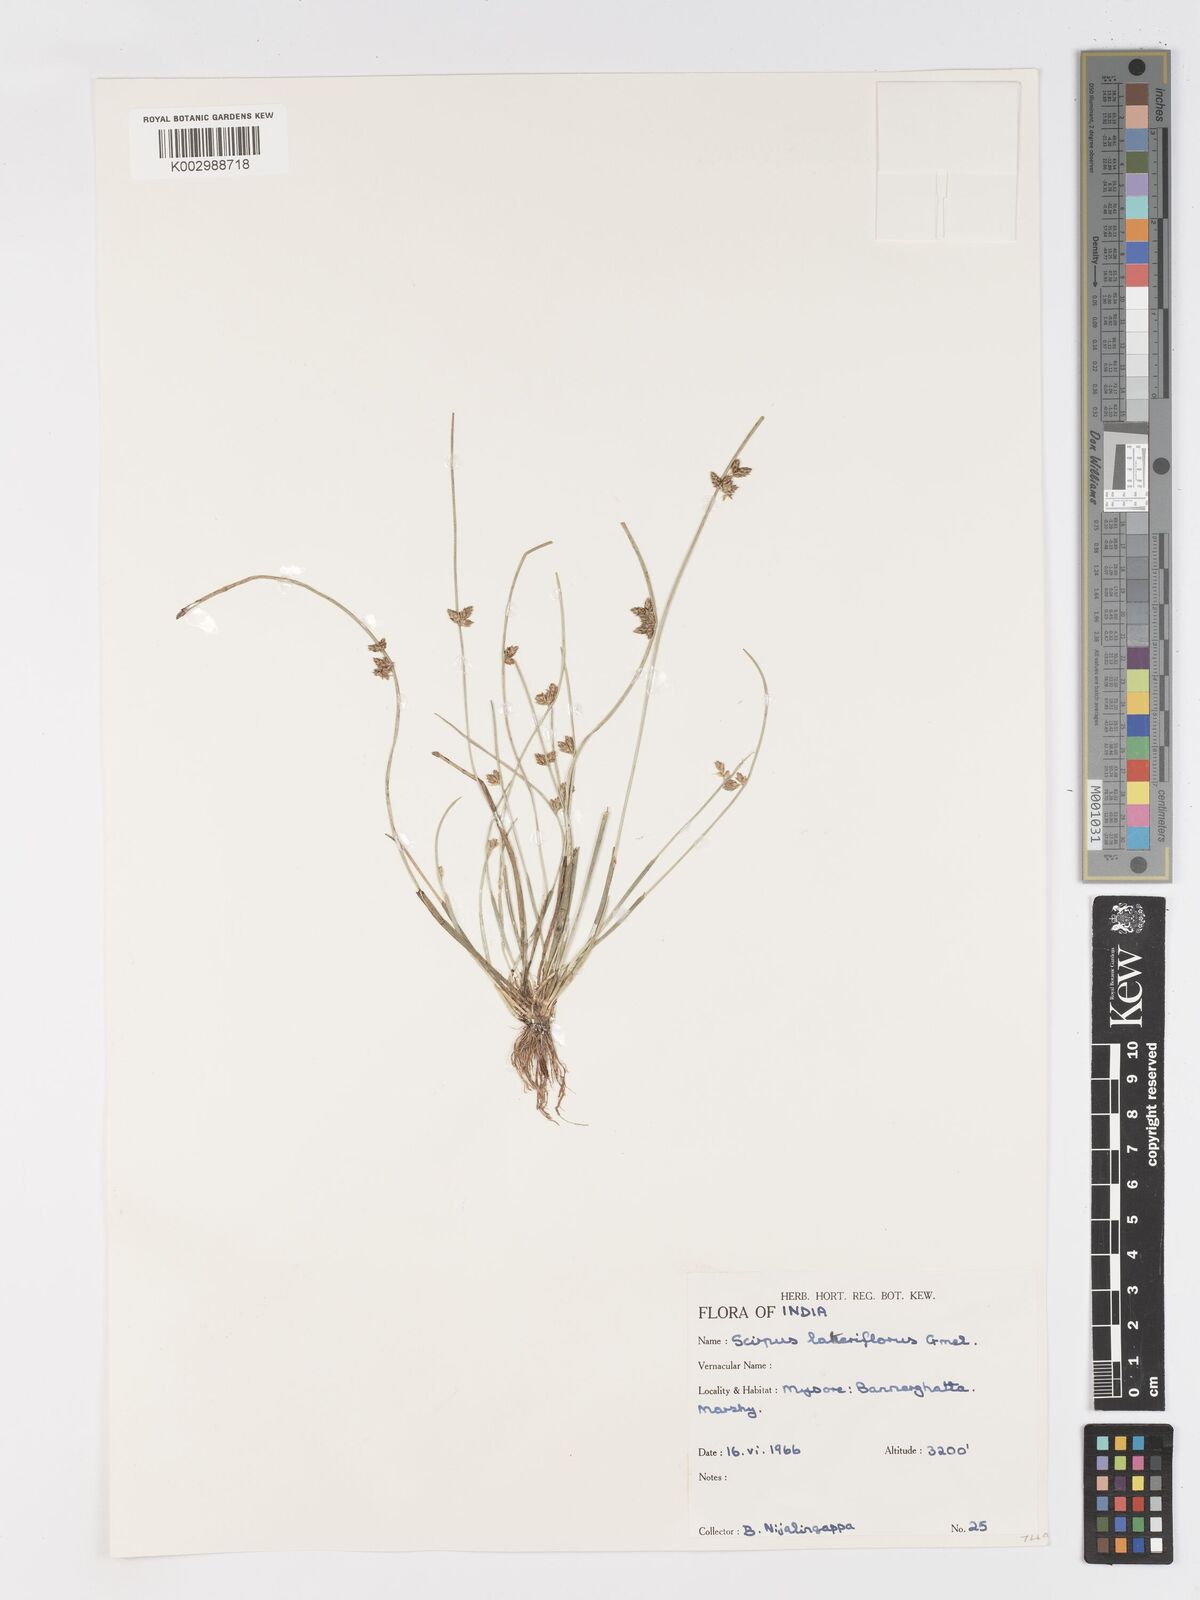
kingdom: Plantae
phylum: Tracheophyta
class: Liliopsida
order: Poales
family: Cyperaceae
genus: Schoenoplectiella
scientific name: Schoenoplectiella lateriflora
